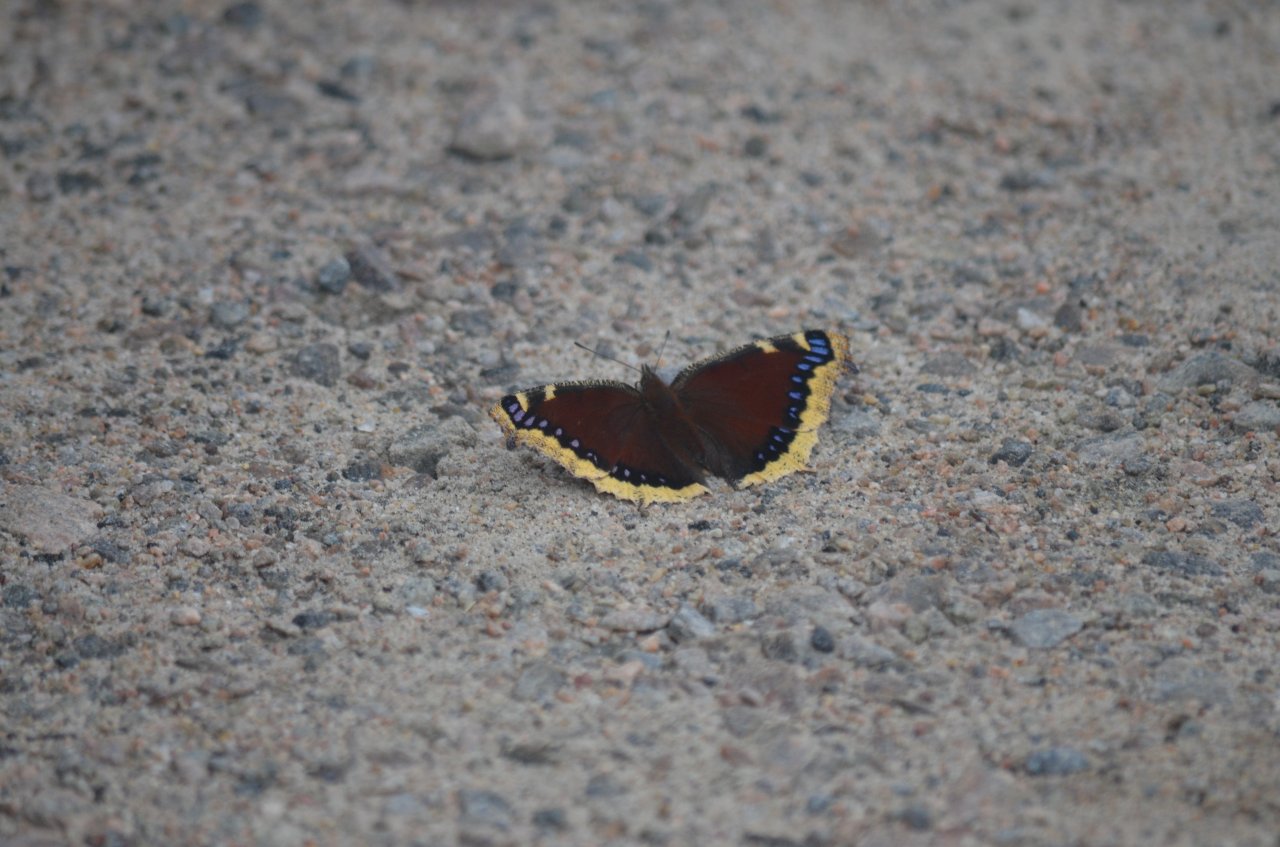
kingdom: Animalia
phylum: Arthropoda
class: Insecta
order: Lepidoptera
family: Nymphalidae
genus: Nymphalis
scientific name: Nymphalis antiopa
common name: Mourning Cloak
